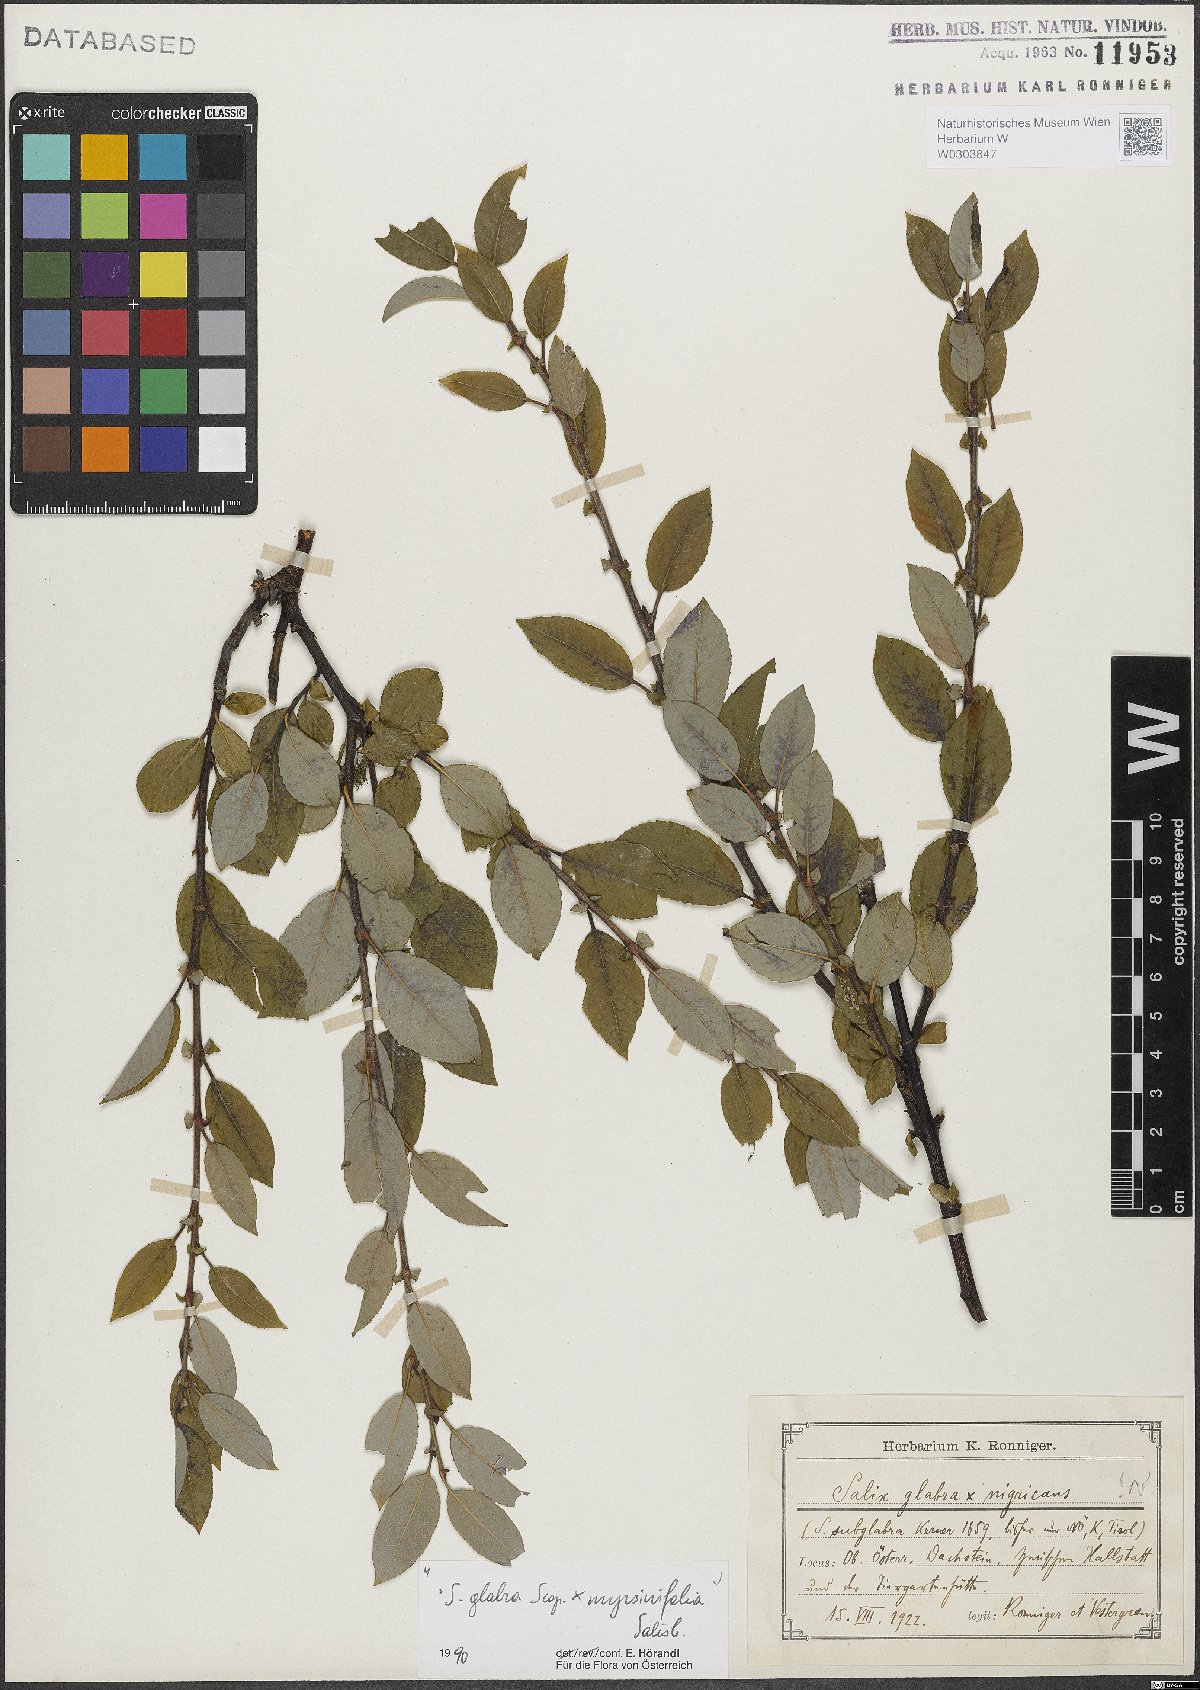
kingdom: Plantae
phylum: Tracheophyta
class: Magnoliopsida
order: Malpighiales
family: Salicaceae
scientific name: Salicaceae
